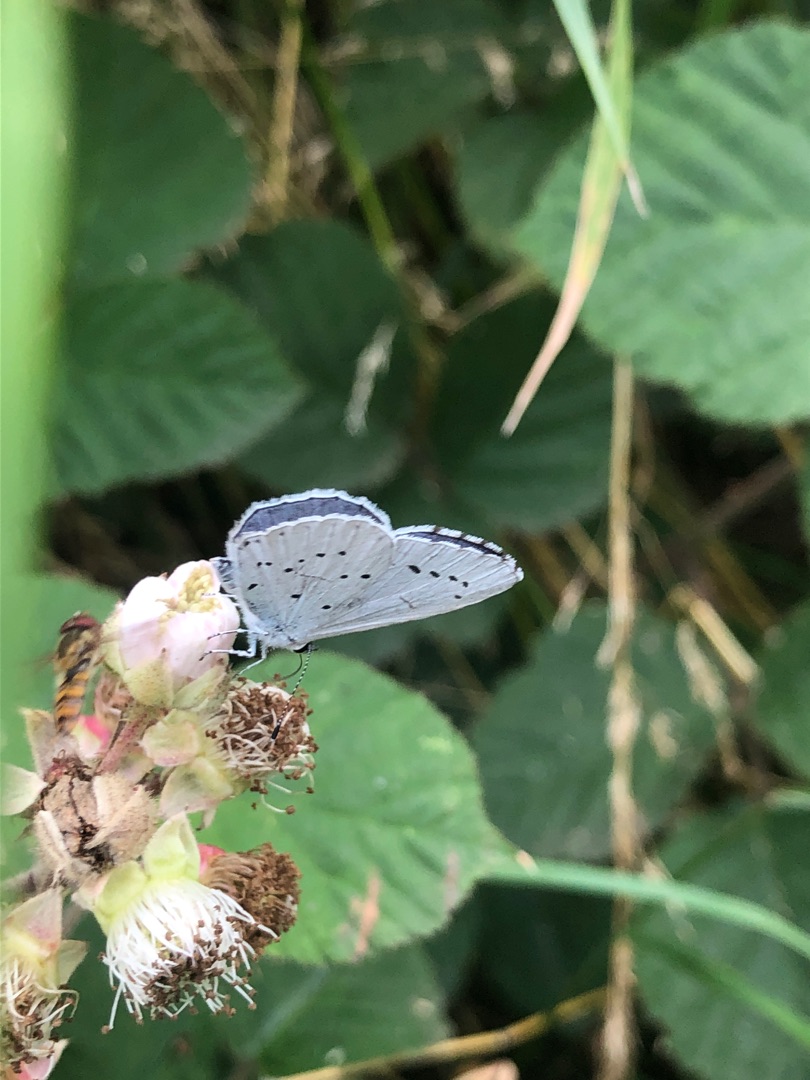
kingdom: Animalia
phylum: Arthropoda
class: Insecta
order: Lepidoptera
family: Lycaenidae
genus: Celastrina
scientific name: Celastrina argiolus
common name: Skovblåfugl
